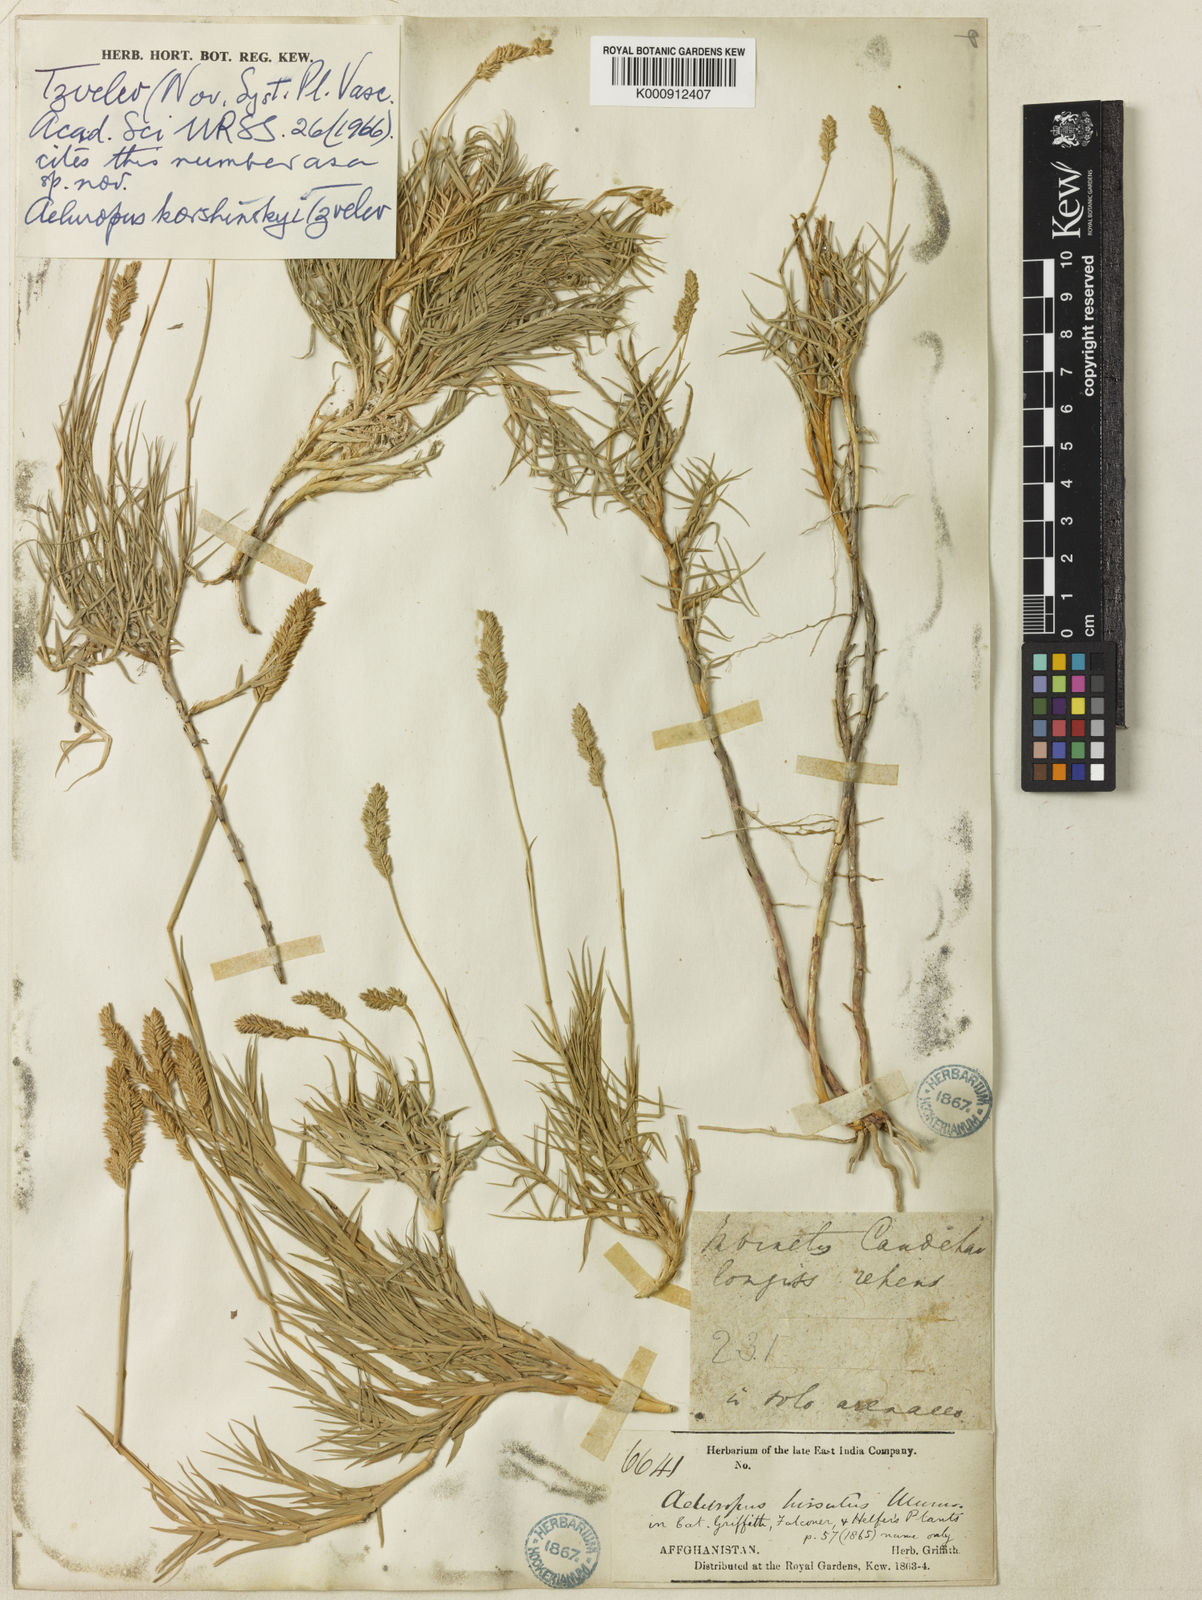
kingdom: Plantae
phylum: Tracheophyta
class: Liliopsida
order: Poales
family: Poaceae
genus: Aeluropus
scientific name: Aeluropus littoralis
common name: Indian walnut
